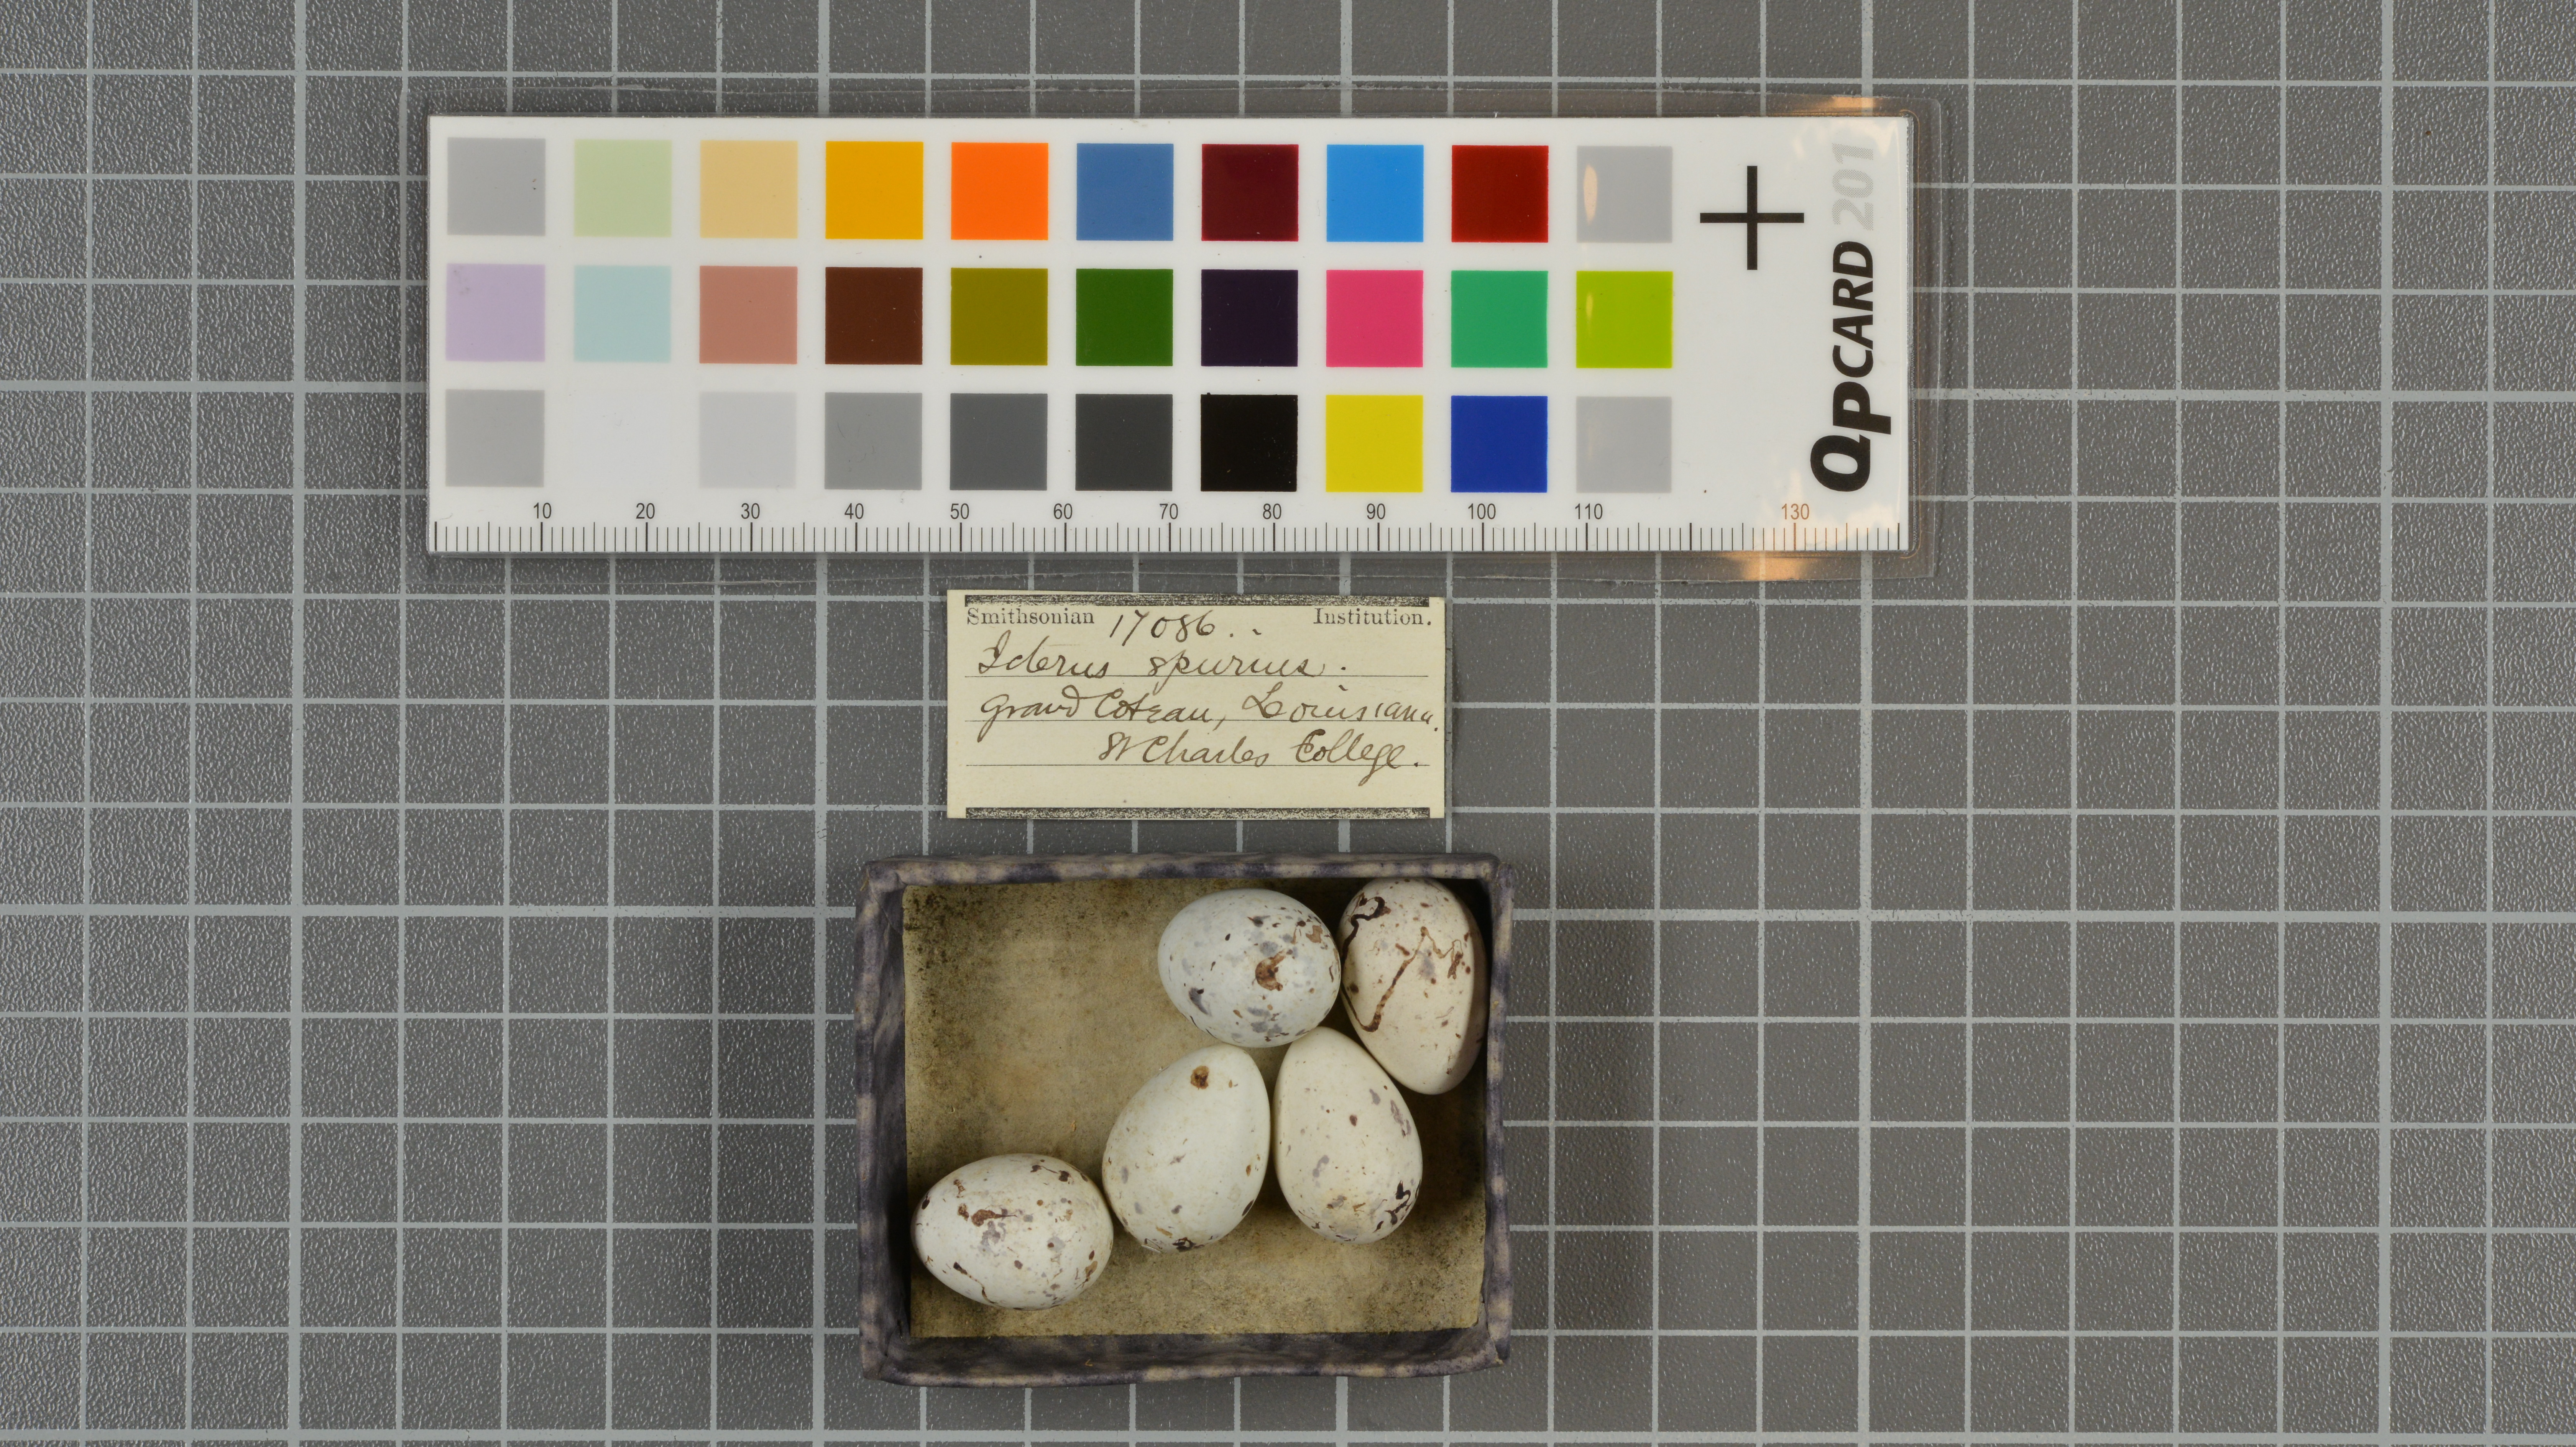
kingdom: Animalia
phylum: Chordata
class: Aves
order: Passeriformes
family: Icteridae
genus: Icterus
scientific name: Icterus spurius
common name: Orchard oriole
